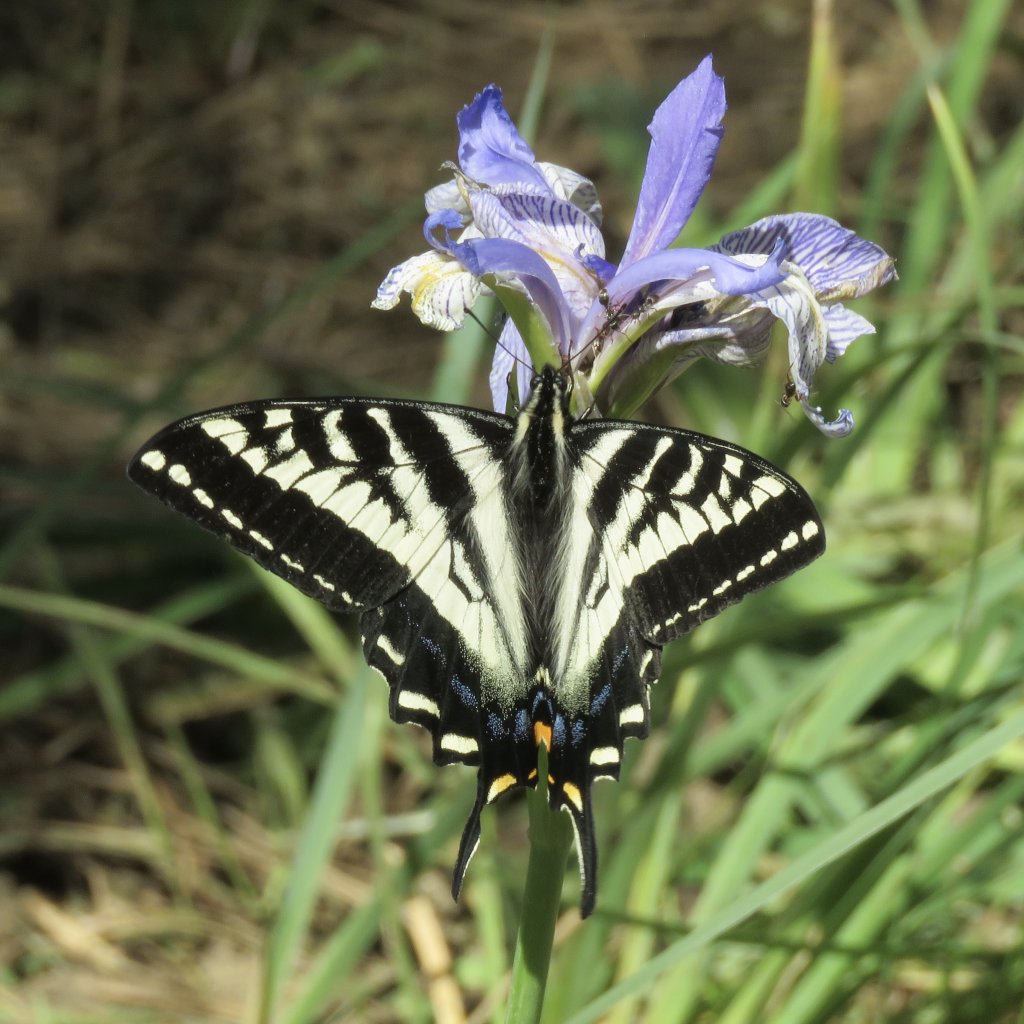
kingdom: Animalia
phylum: Arthropoda
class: Insecta
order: Lepidoptera
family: Papilionidae
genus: Pterourus
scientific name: Pterourus eurymedon
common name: Pale Swallowtail
